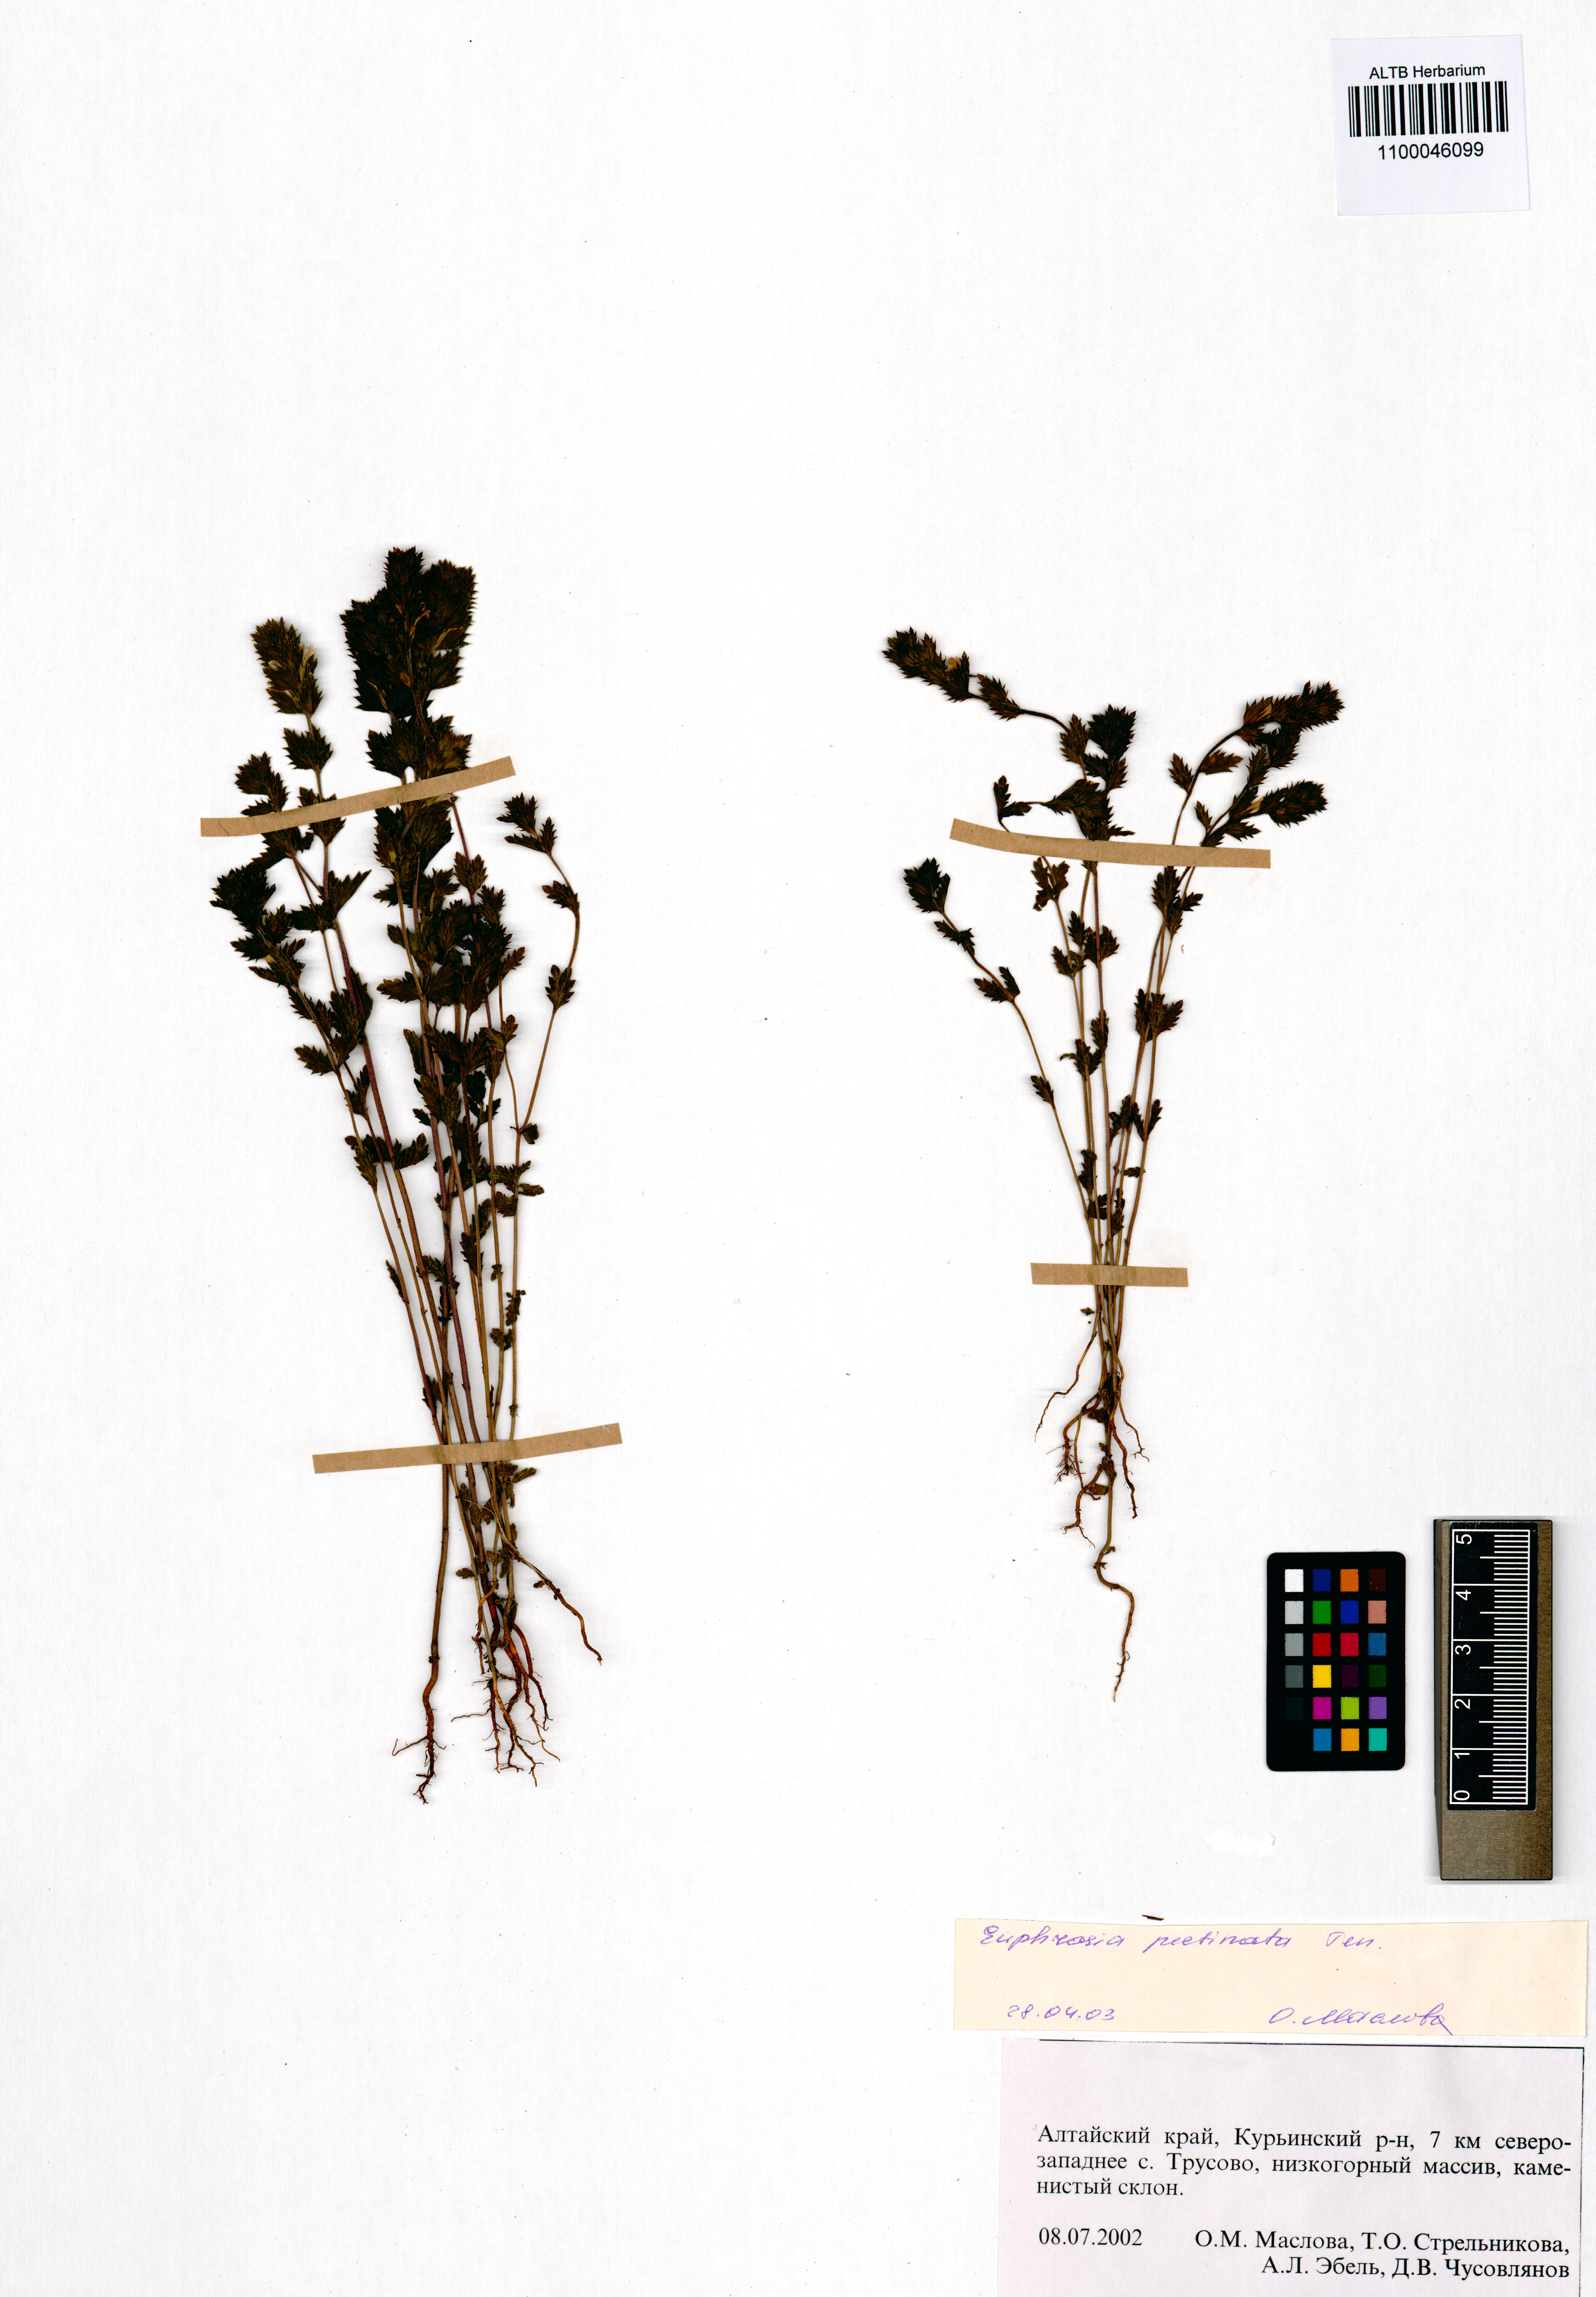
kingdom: Plantae
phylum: Tracheophyta
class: Magnoliopsida
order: Lamiales
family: Orobanchaceae
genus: Euphrasia
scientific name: Euphrasia pectinata
